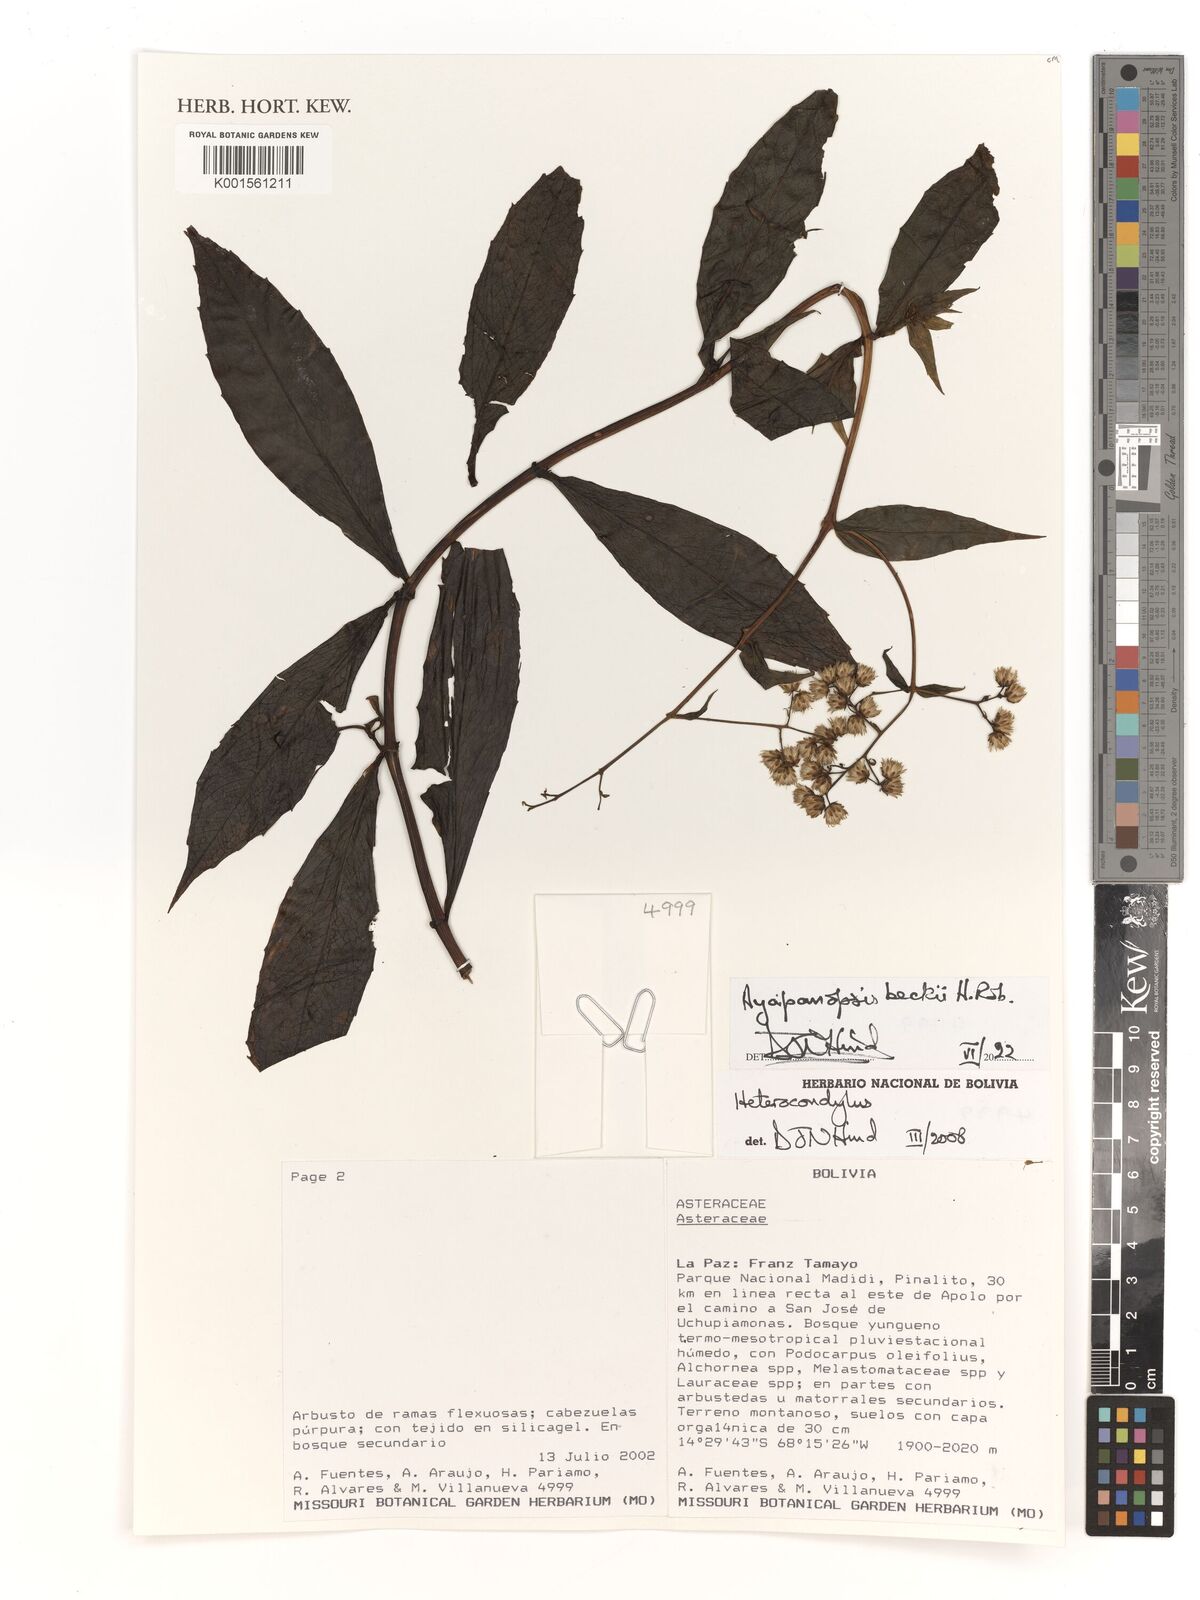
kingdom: Plantae
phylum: Tracheophyta
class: Magnoliopsida
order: Asterales
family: Asteraceae
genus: Ayapanopsis
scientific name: Ayapanopsis beckii
